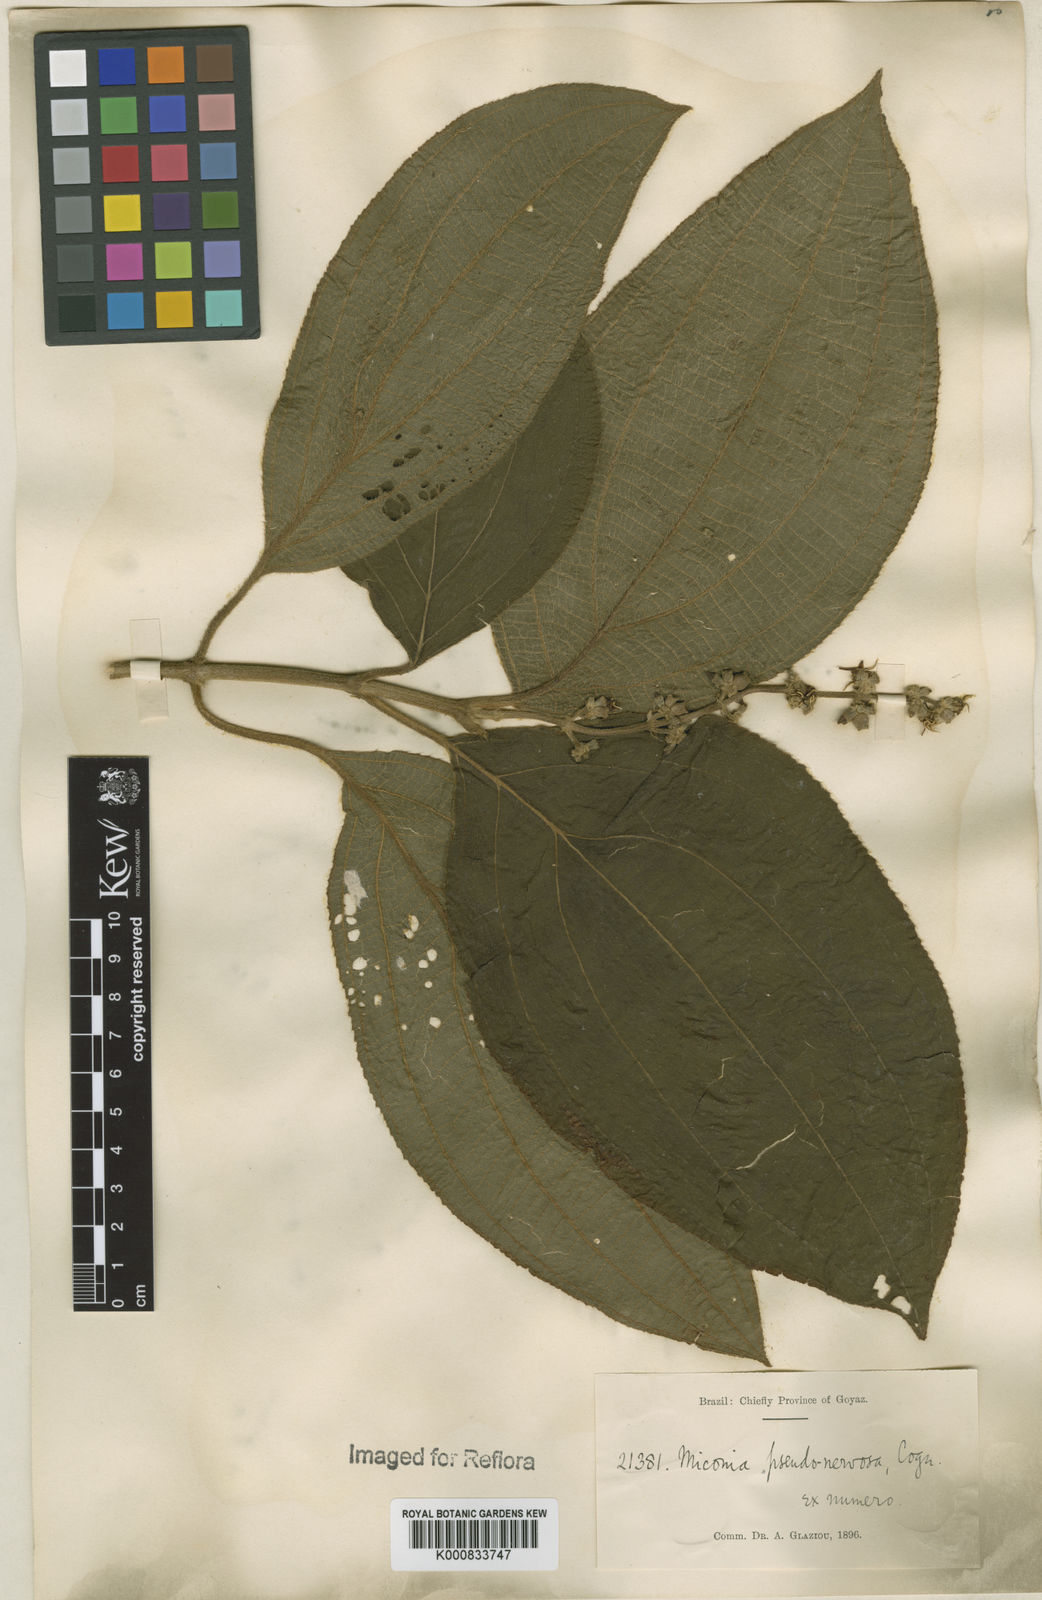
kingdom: Plantae
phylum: Tracheophyta
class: Magnoliopsida
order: Myrtales
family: Melastomataceae
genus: Miconia
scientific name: Miconia pseudonervosa
